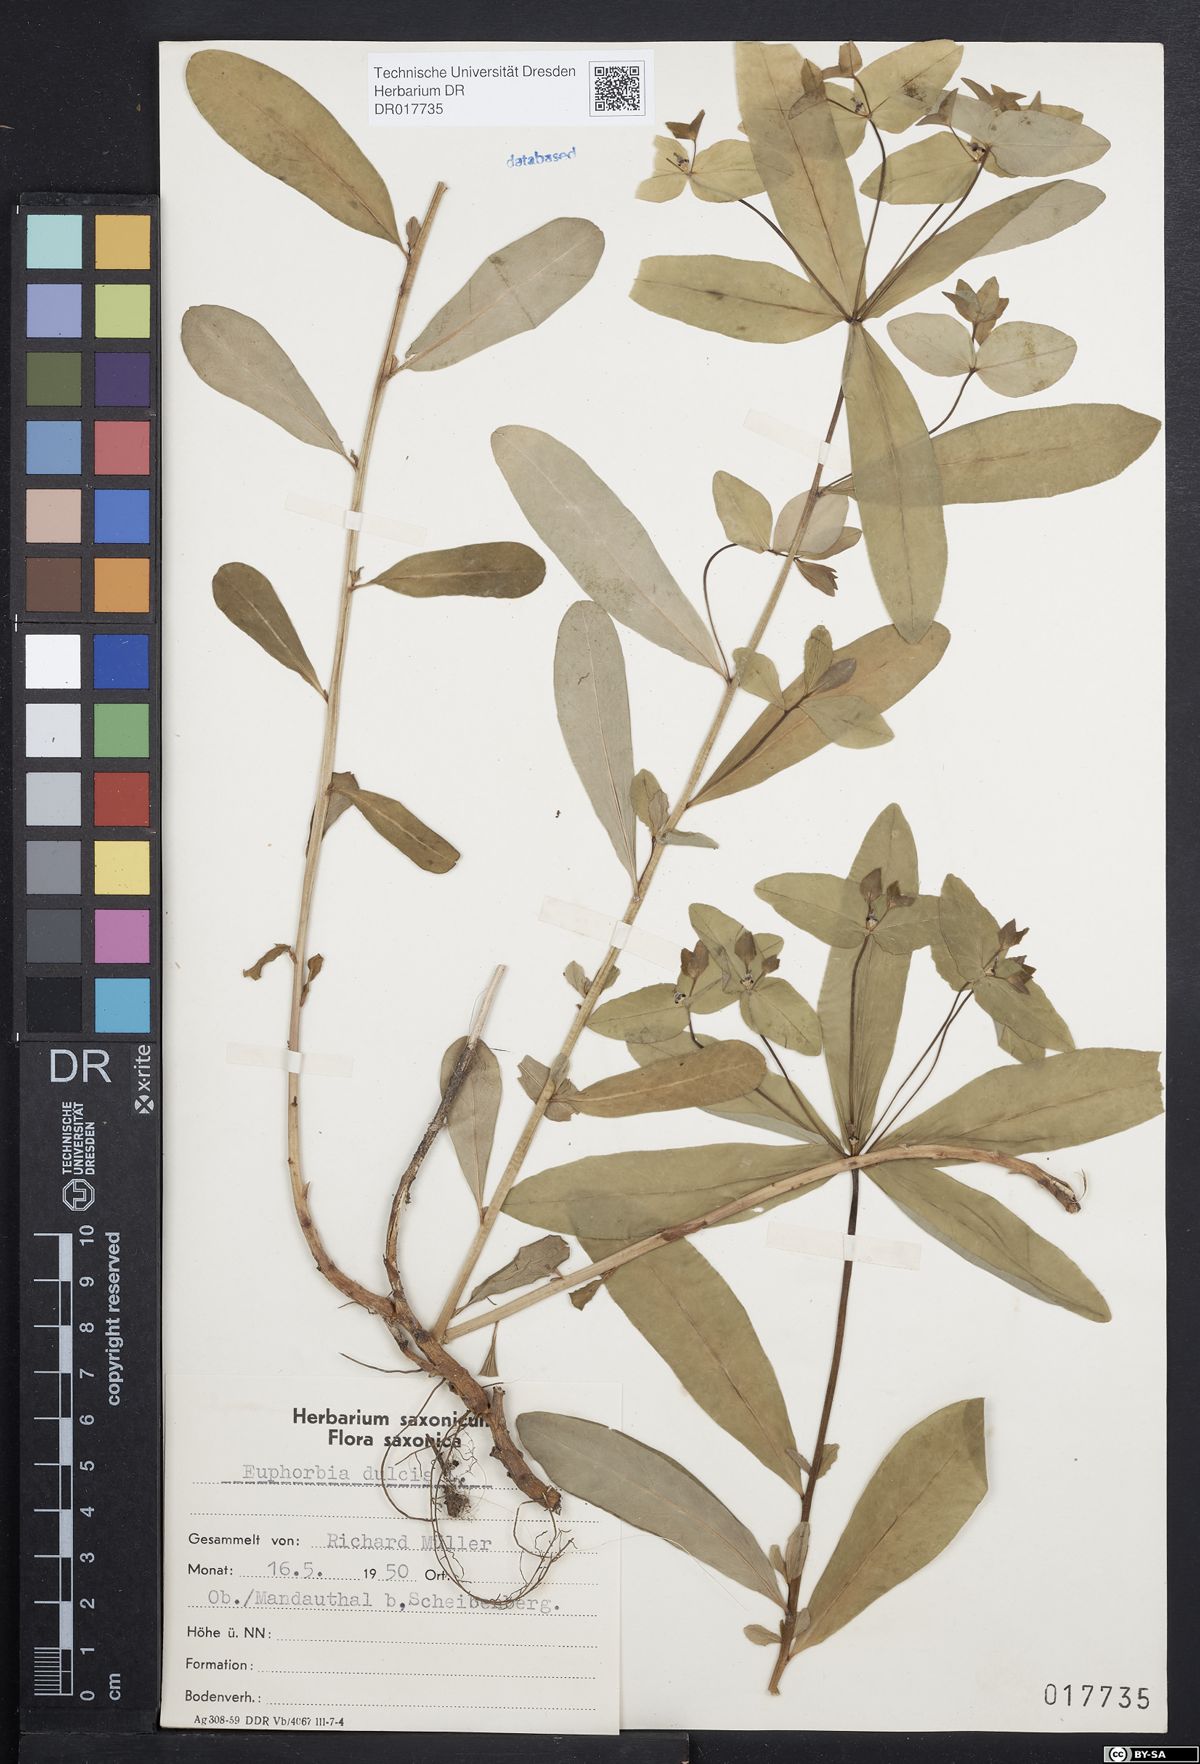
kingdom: Plantae
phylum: Tracheophyta
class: Magnoliopsida
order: Malpighiales
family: Euphorbiaceae
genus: Euphorbia
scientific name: Euphorbia dulcis
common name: Sweet spurge
